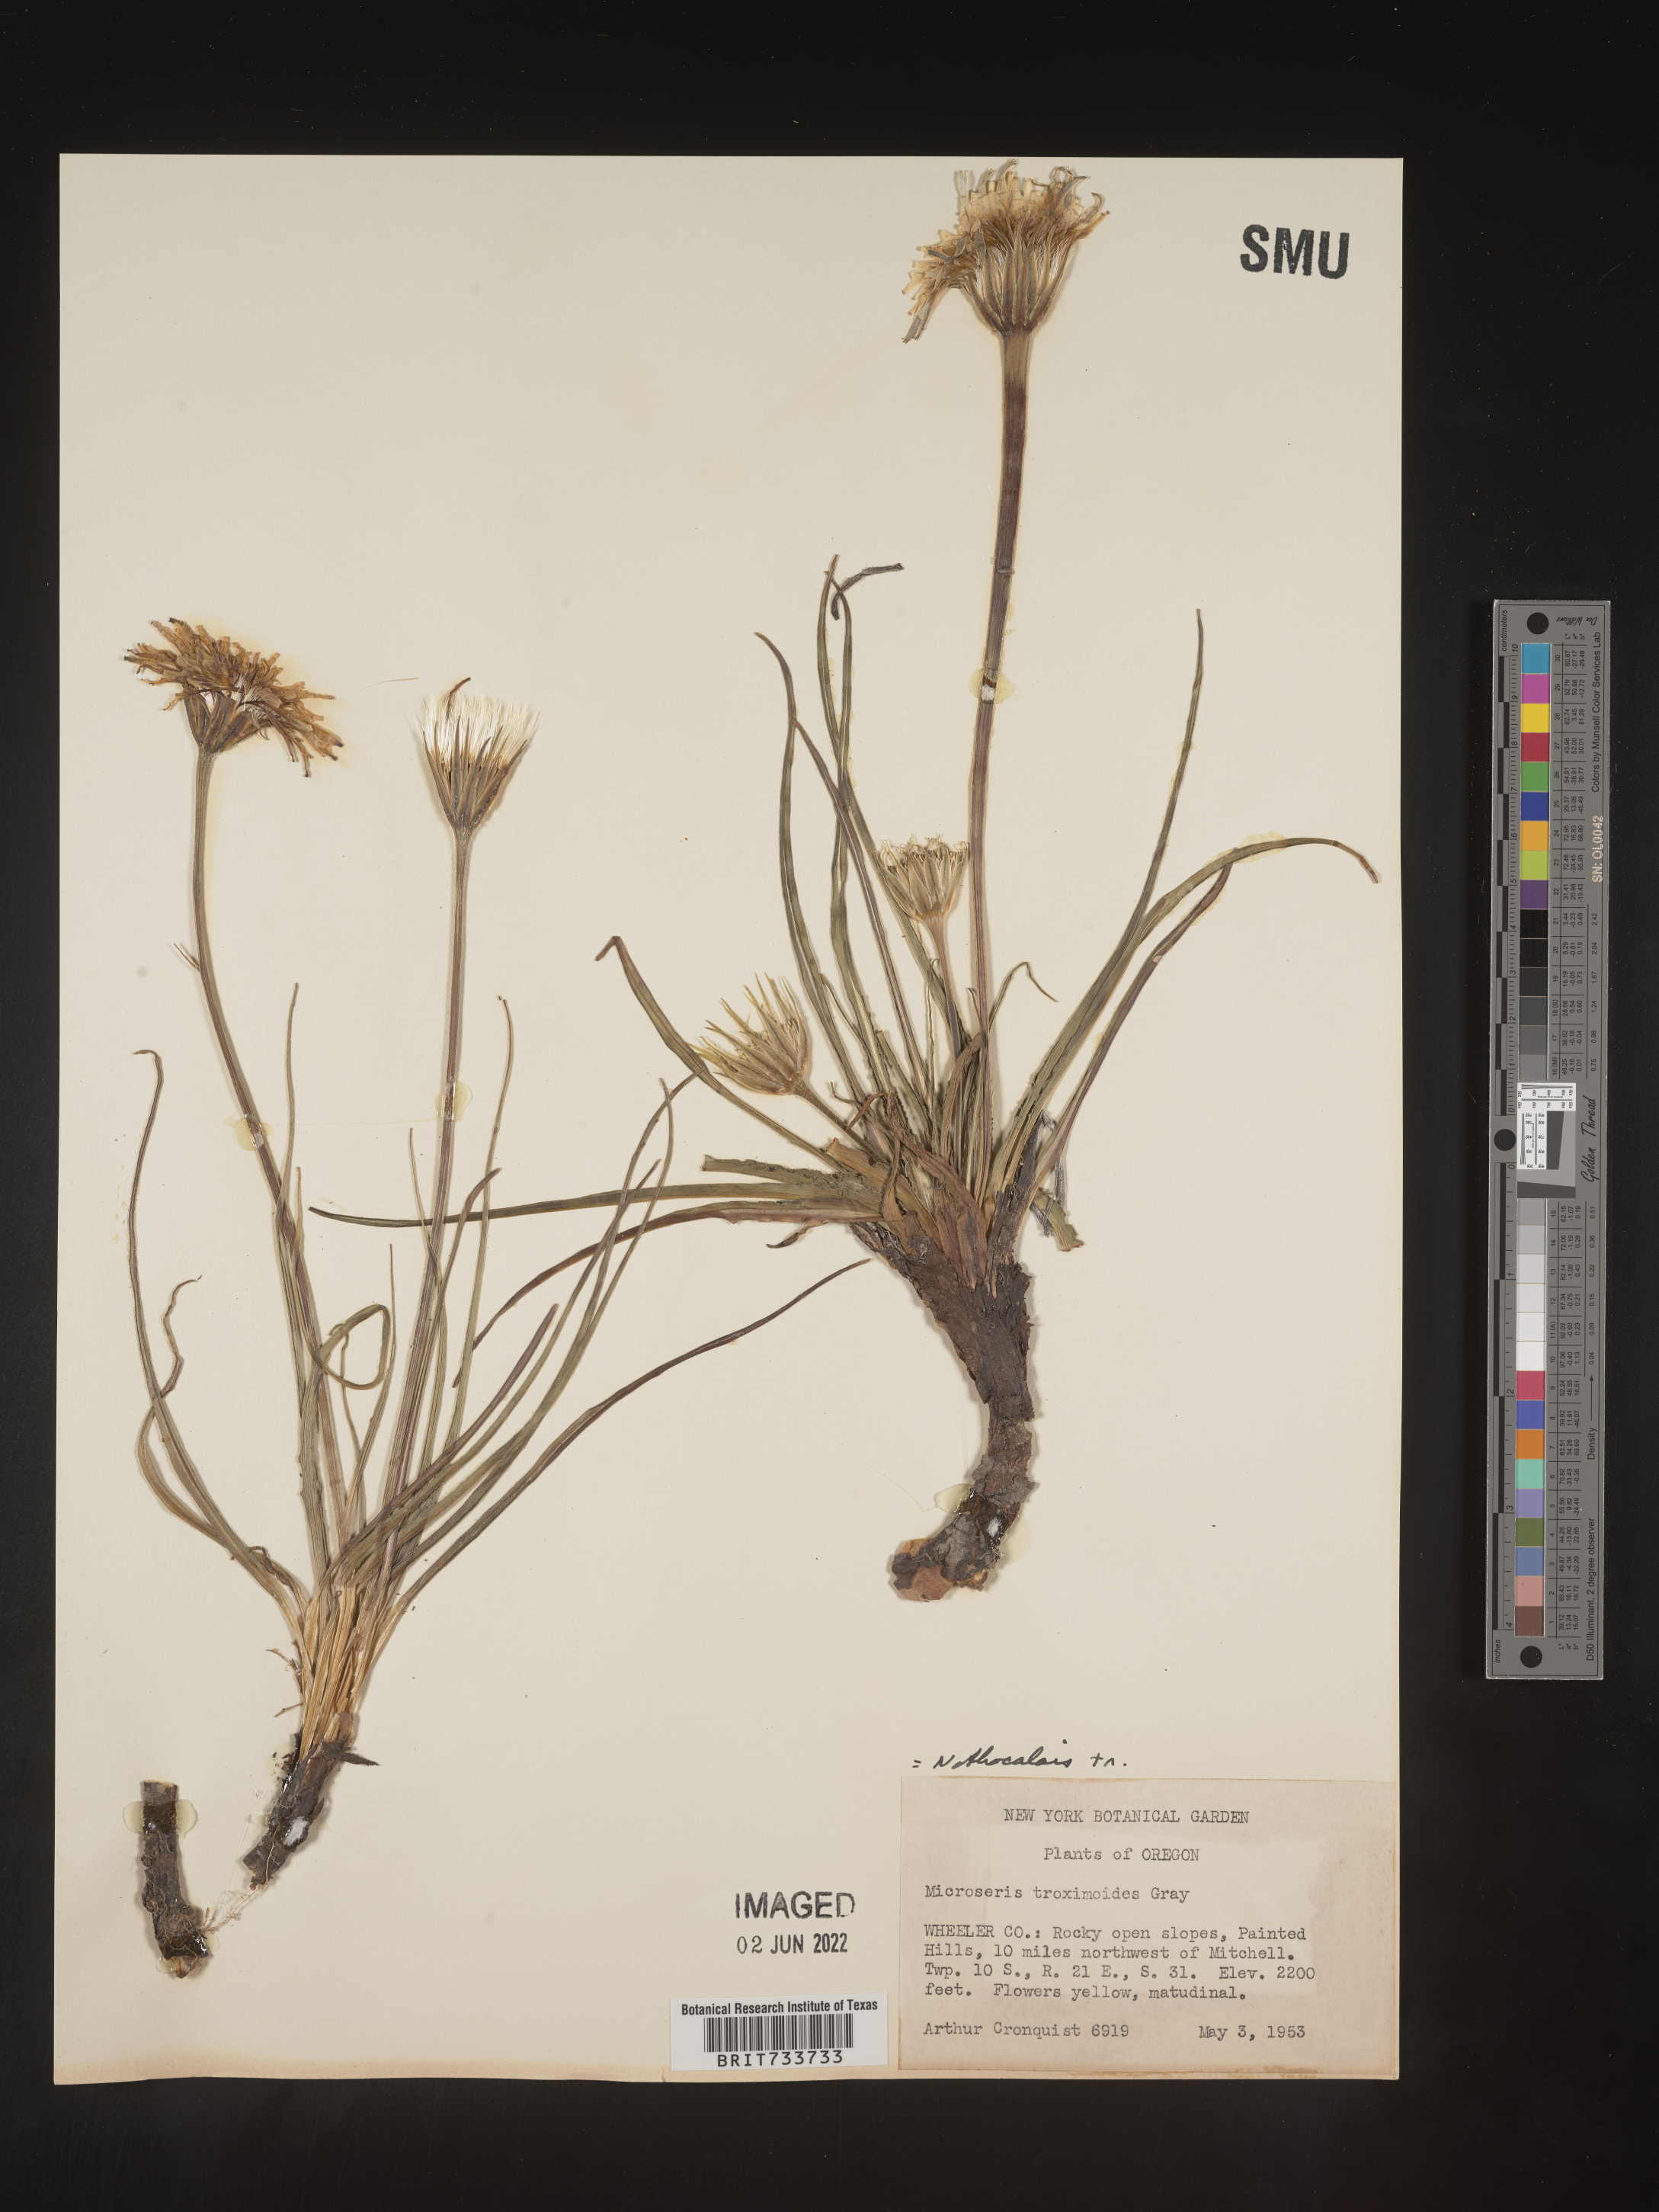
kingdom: Plantae
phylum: Tracheophyta
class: Magnoliopsida
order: Asterales
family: Asteraceae
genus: Microseris
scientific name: Microseris
